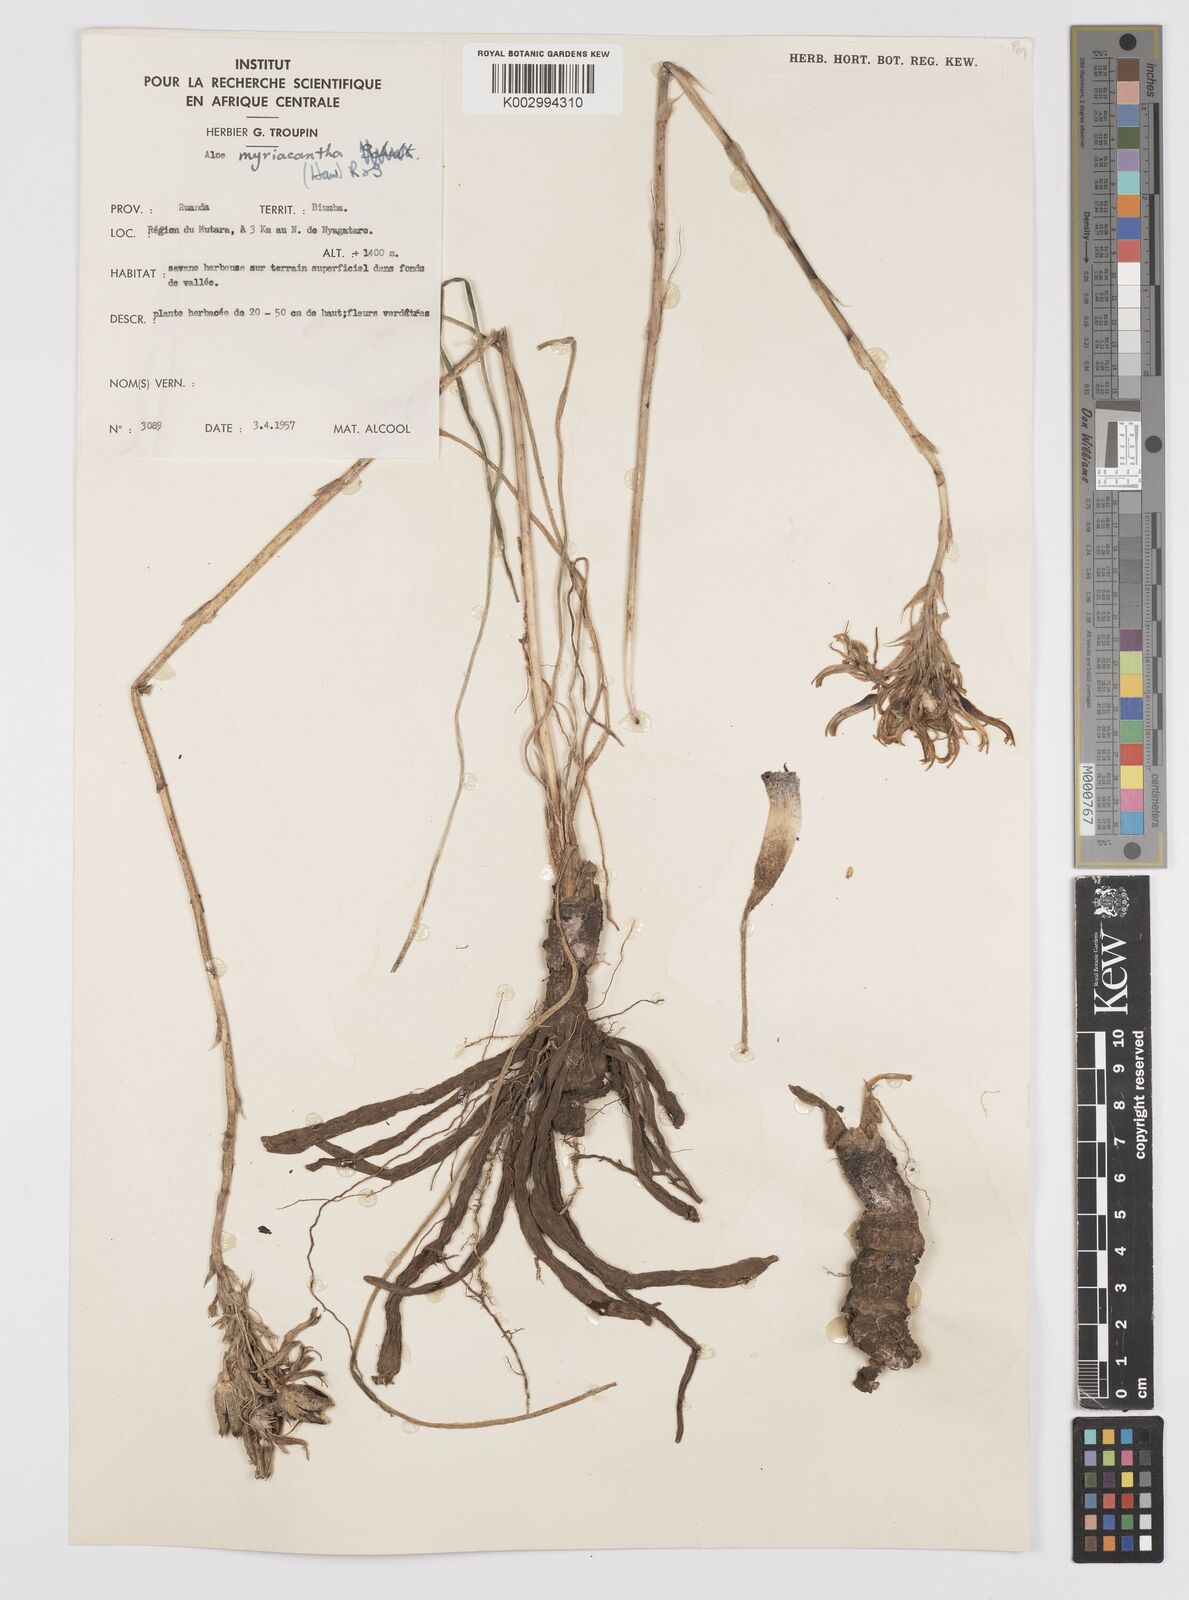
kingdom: Plantae
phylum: Tracheophyta
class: Liliopsida
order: Asparagales
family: Asphodelaceae
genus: Aloe
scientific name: Aloe myriacantha
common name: Grass aloe
